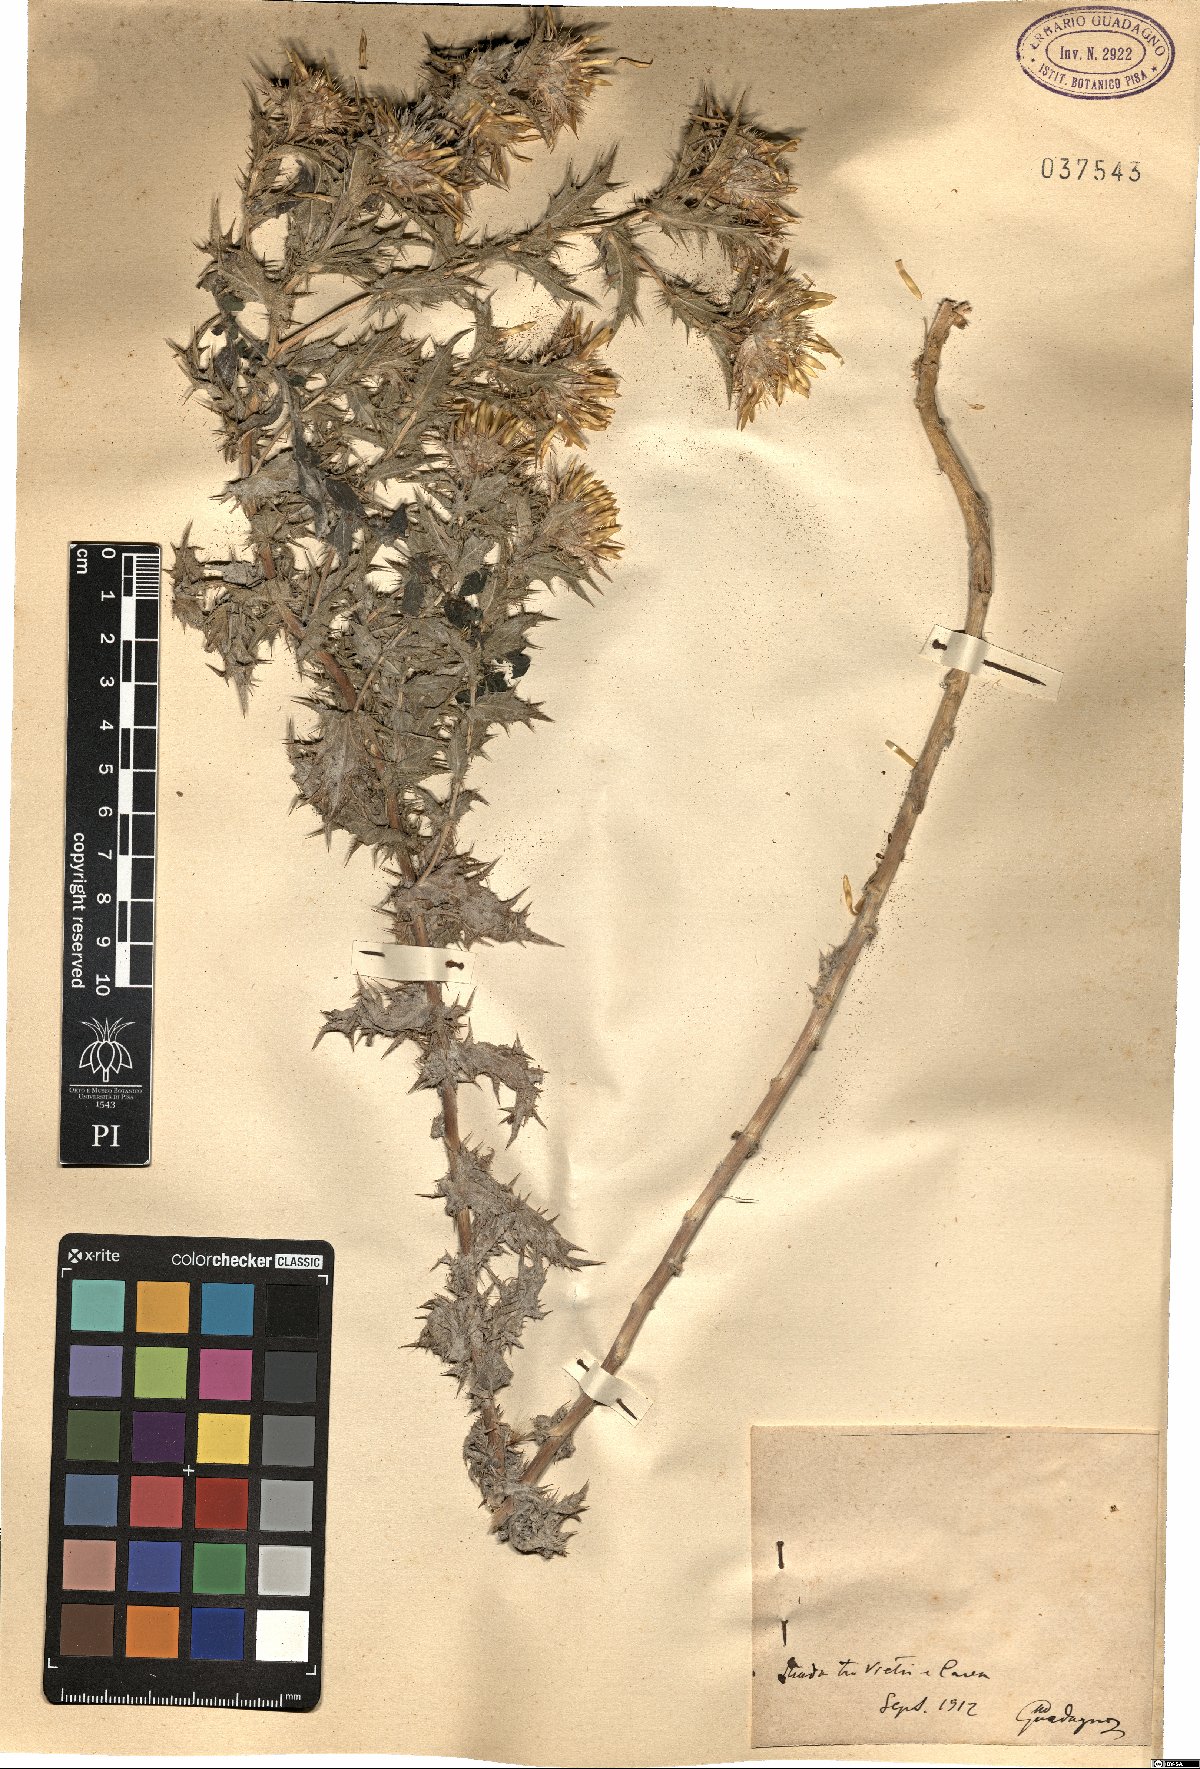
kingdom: Plantae
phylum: Tracheophyta
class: Magnoliopsida
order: Asterales
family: Asteraceae
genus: Carlina
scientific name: Carlina
